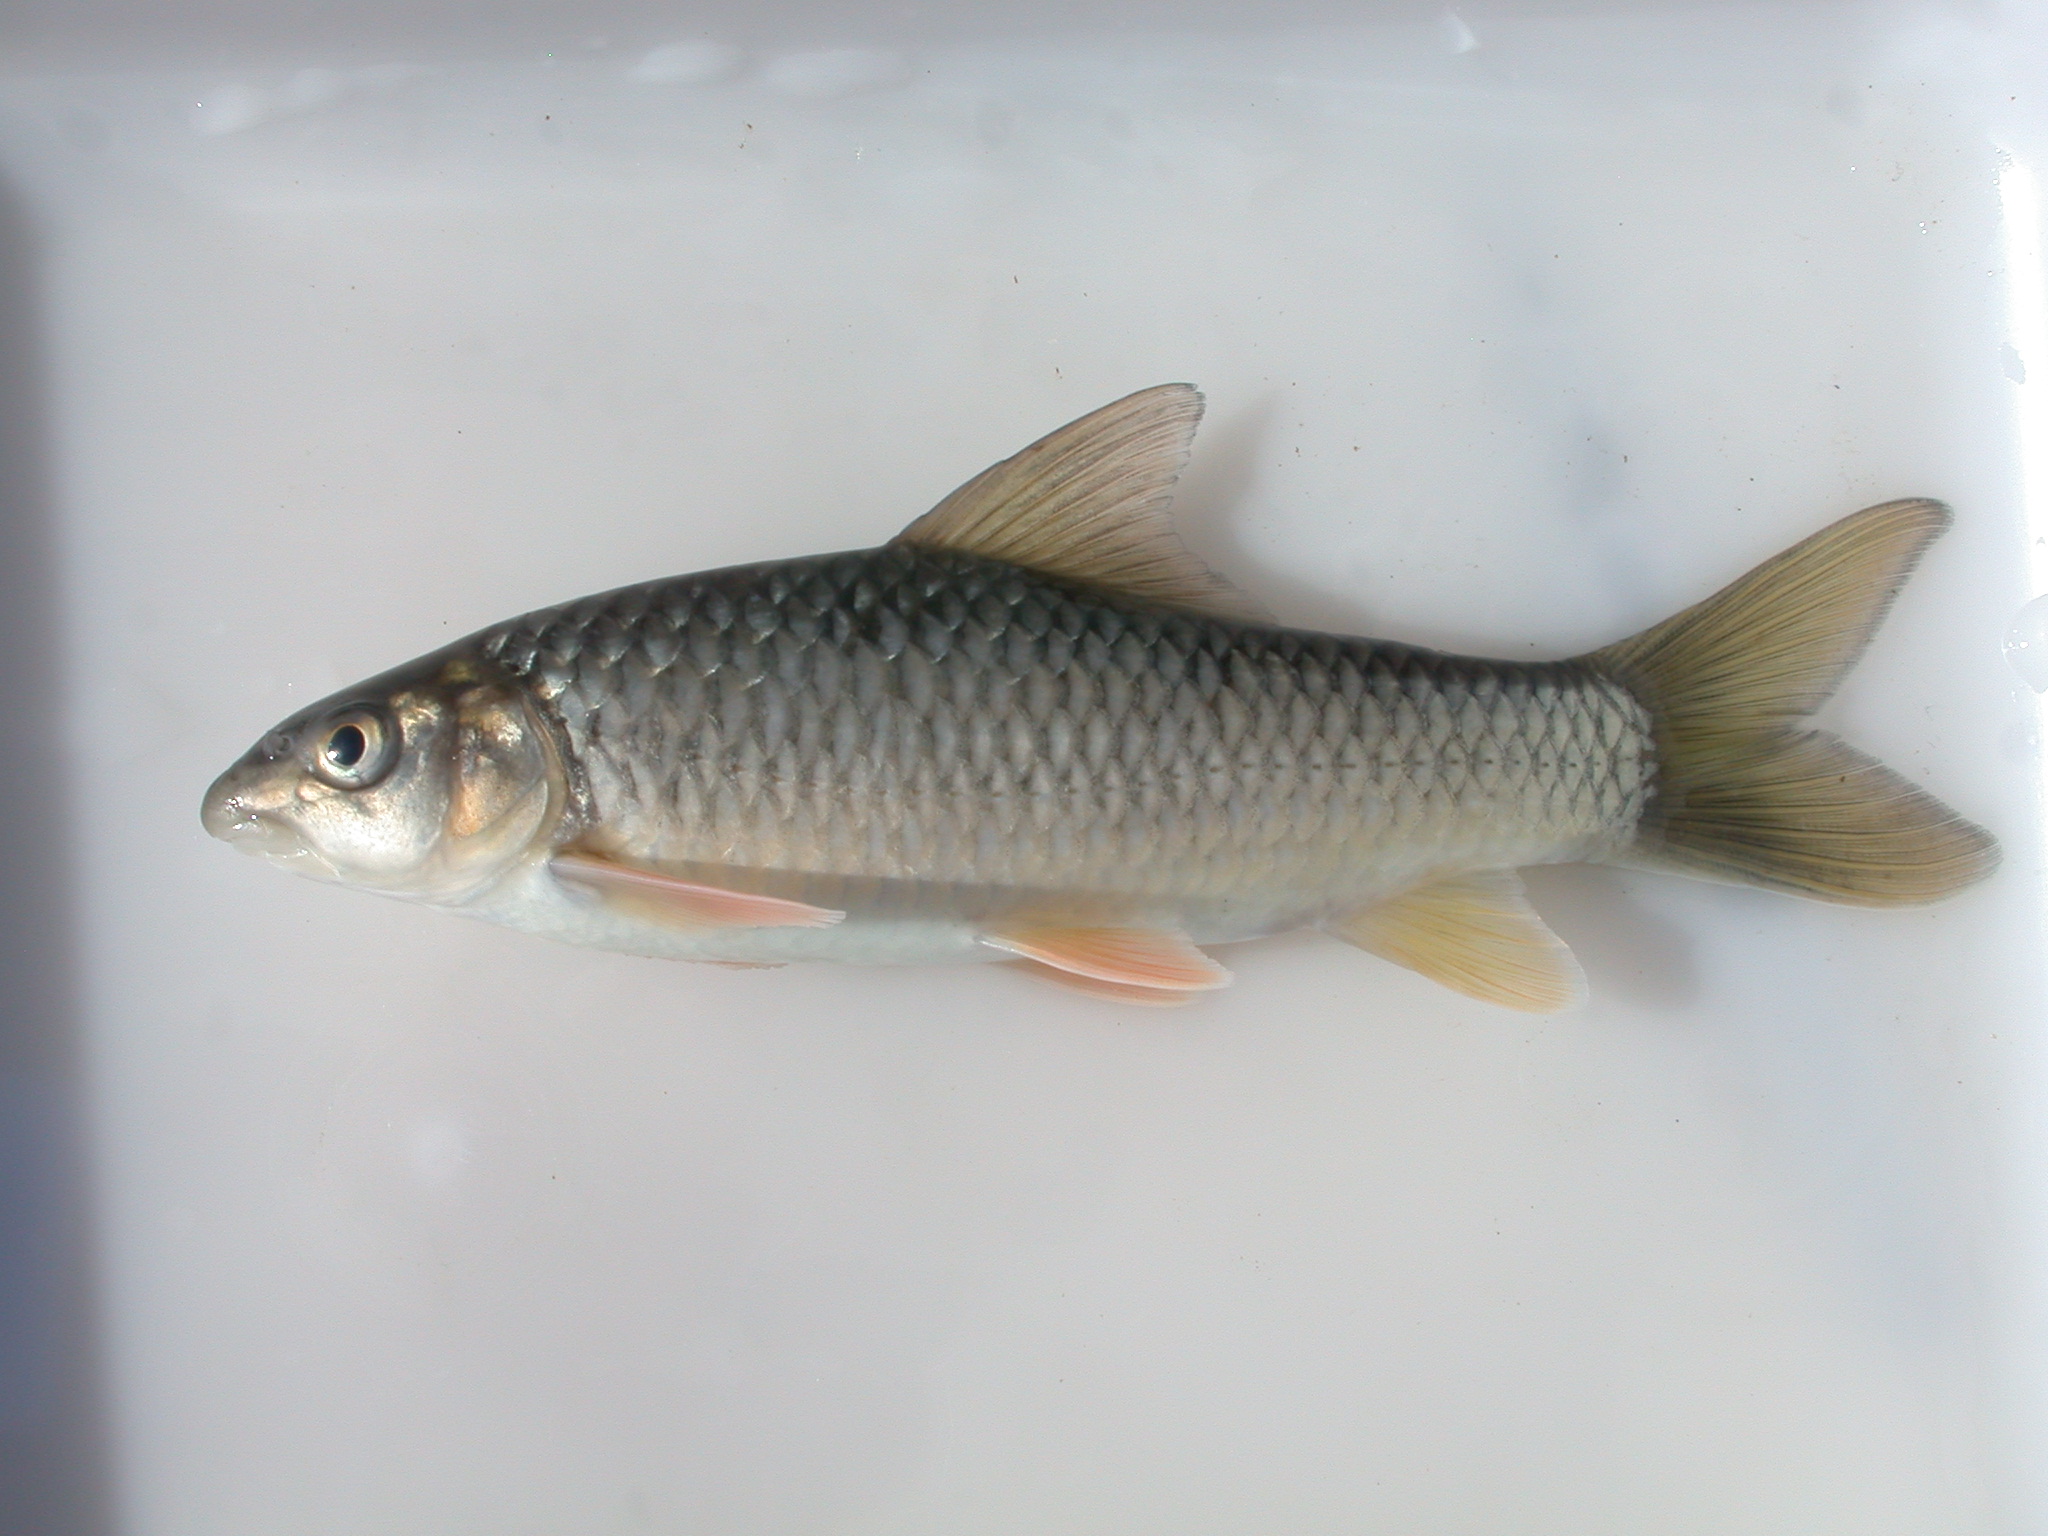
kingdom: Animalia
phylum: Chordata
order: Cypriniformes
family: Cyprinidae
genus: Labeobarbus
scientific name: Labeobarbus marequensis
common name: Largescale yellowfish
